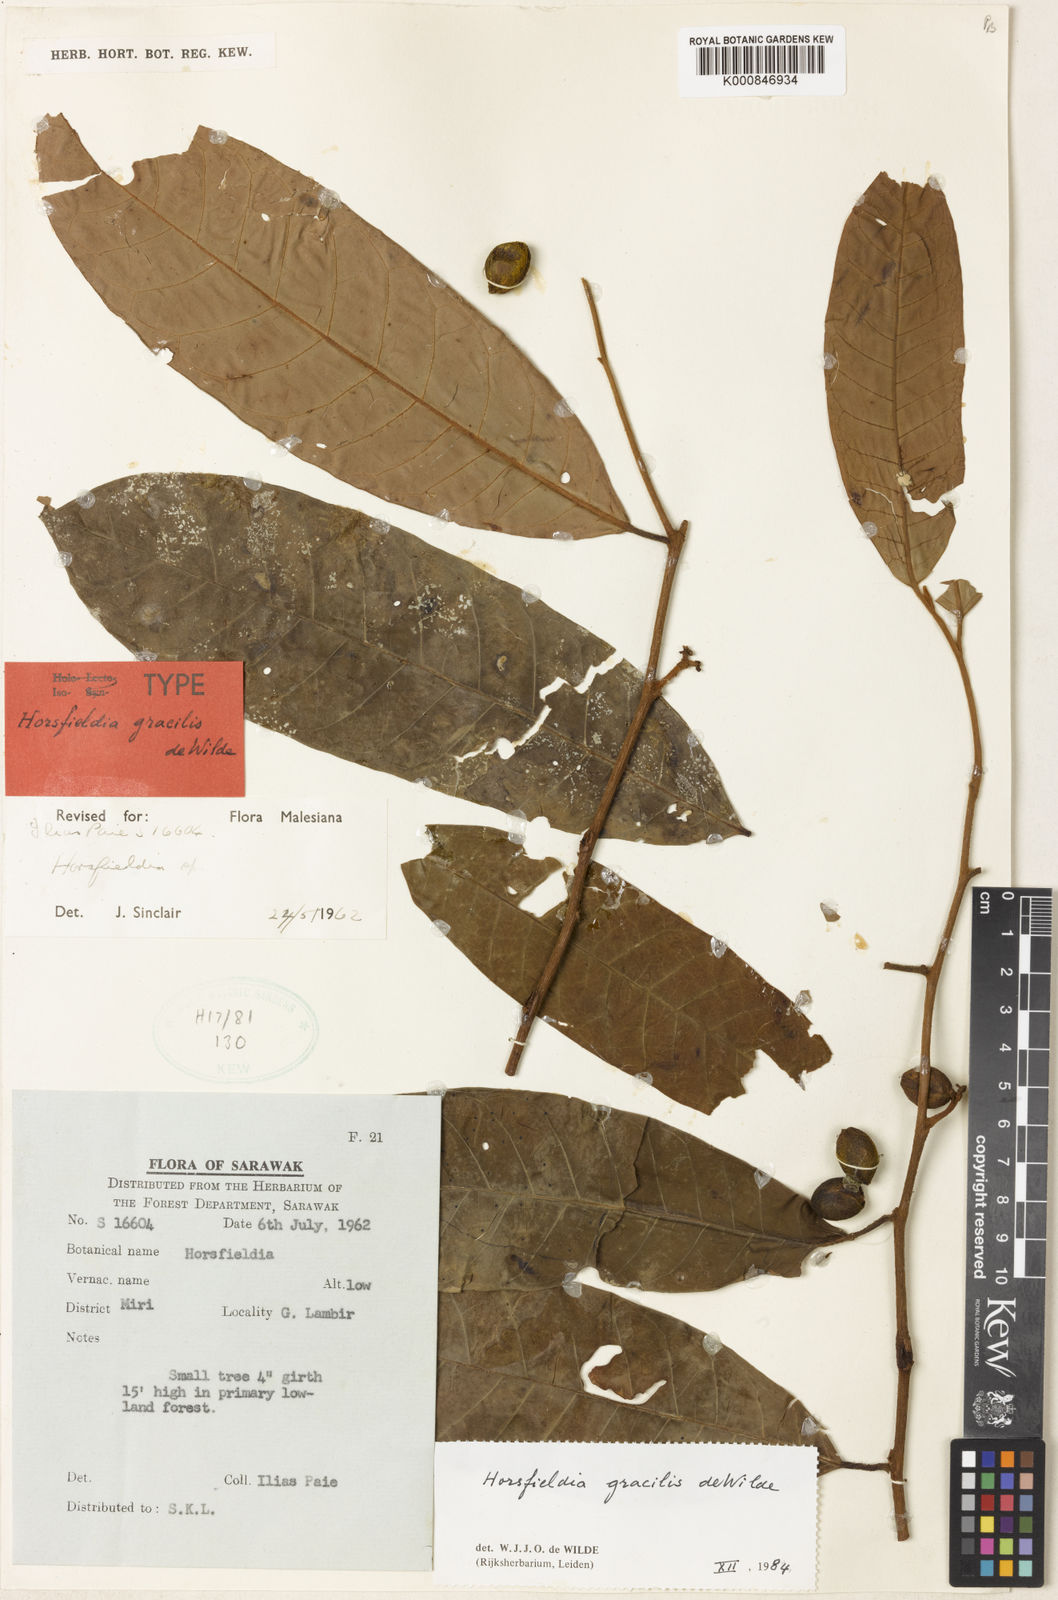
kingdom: Plantae
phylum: Tracheophyta
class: Magnoliopsida
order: Magnoliales
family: Myristicaceae
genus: Horsfieldia
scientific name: Horsfieldia gracilis
